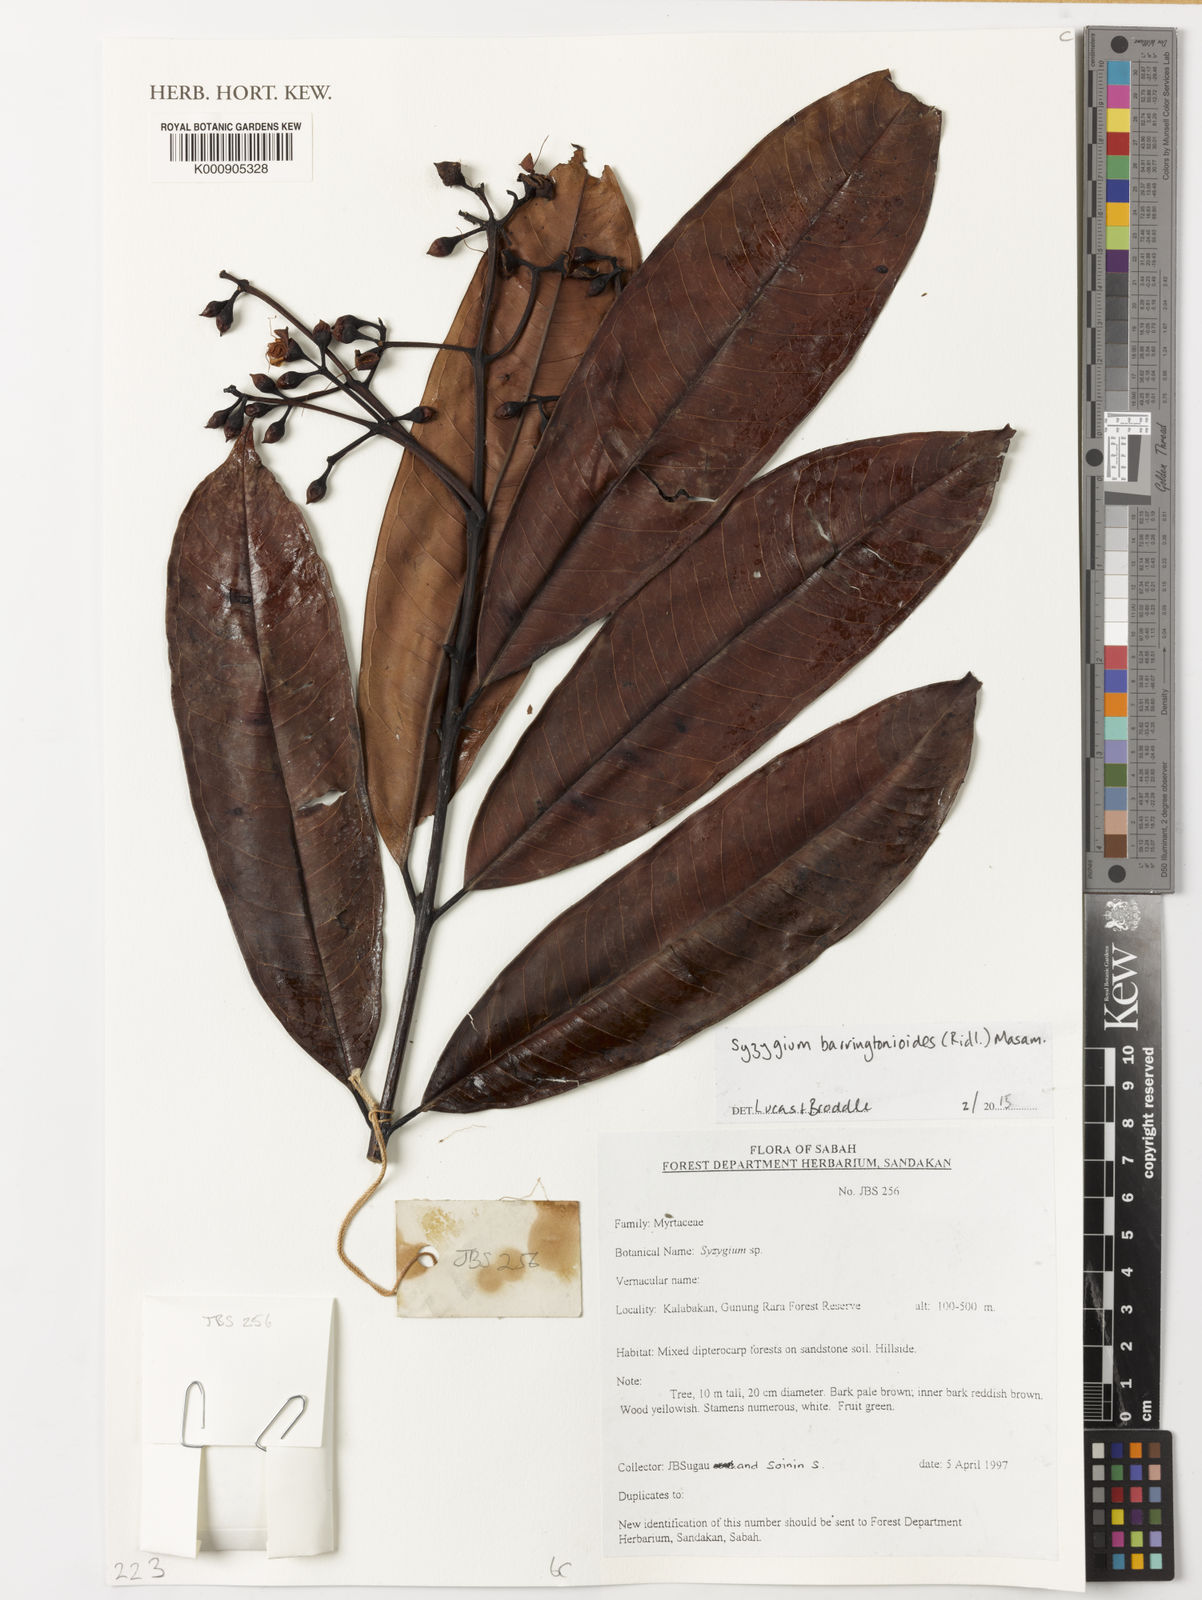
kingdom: Plantae
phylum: Tracheophyta
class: Magnoliopsida
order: Myrtales
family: Myrtaceae
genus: Syzygium
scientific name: Syzygium barringtonioides
